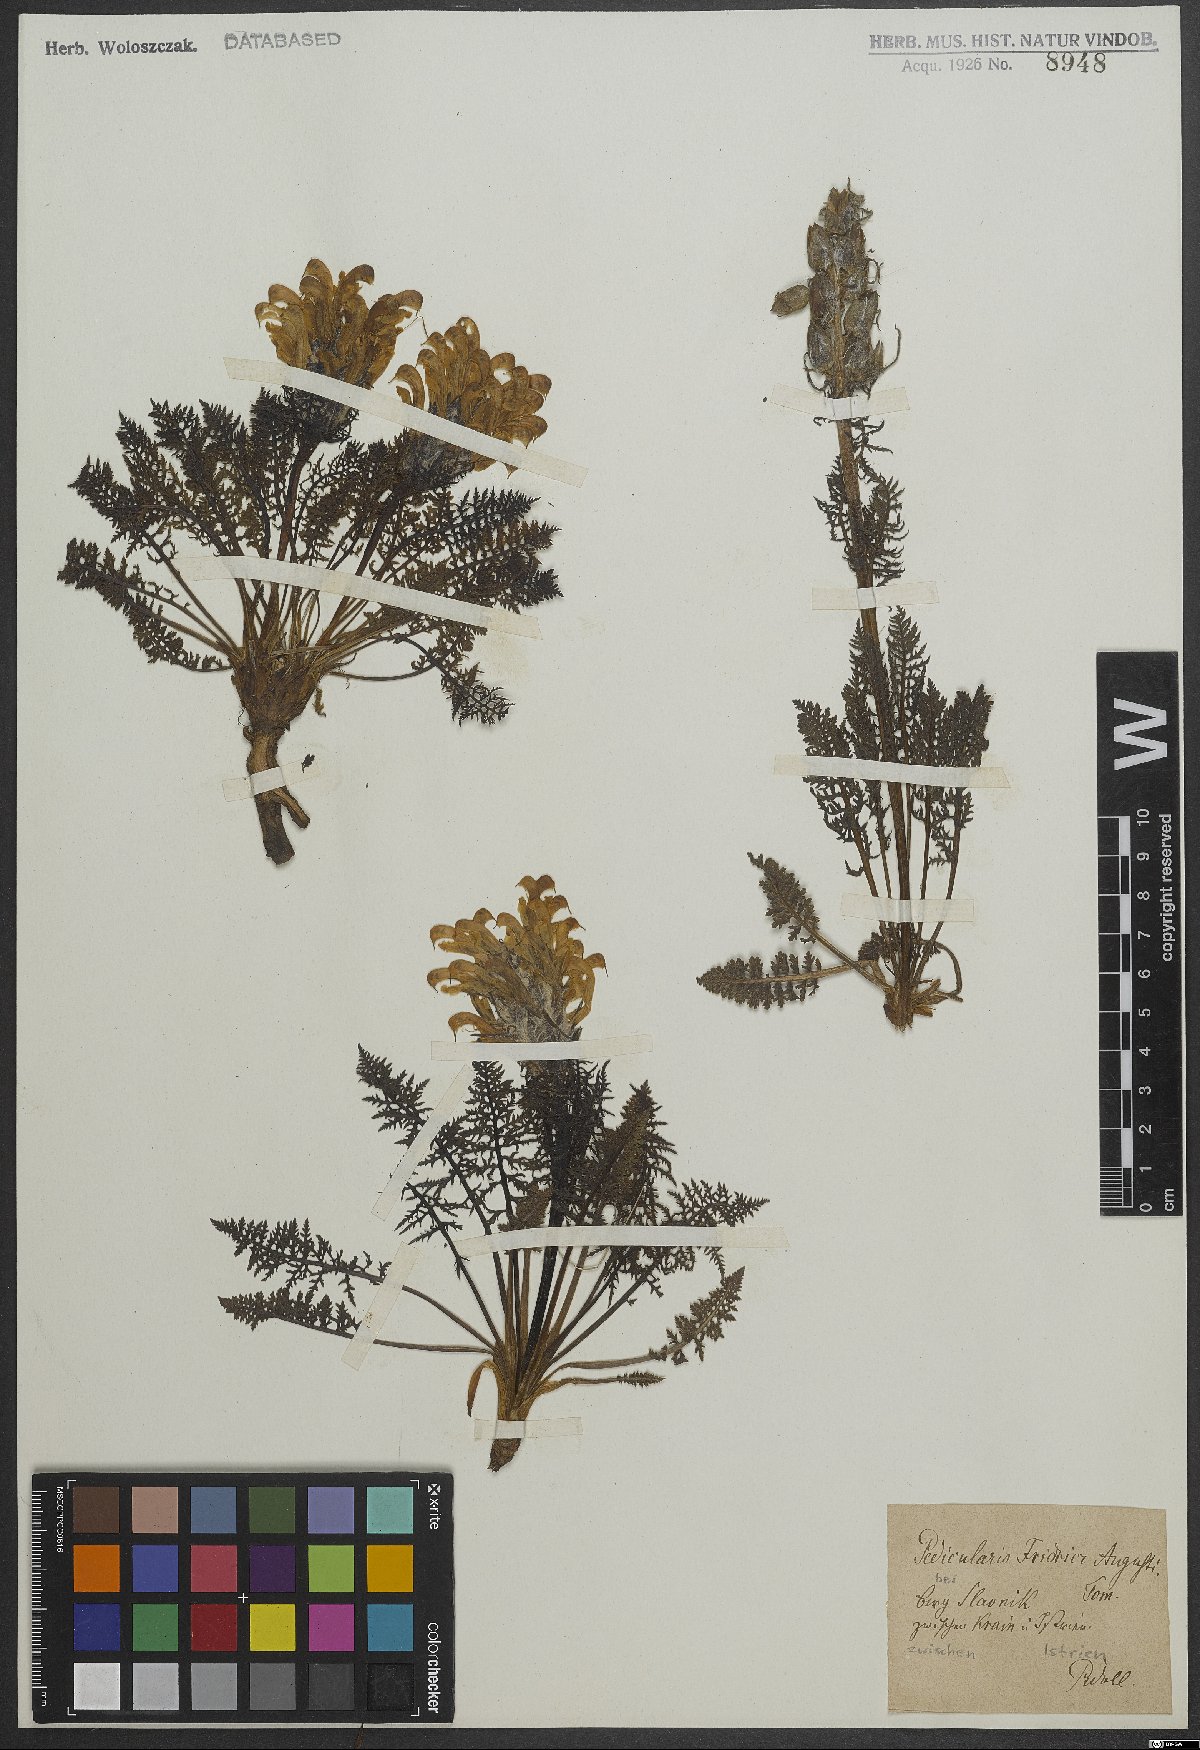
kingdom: Plantae
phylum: Tracheophyta
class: Magnoliopsida
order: Lamiales
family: Orobanchaceae
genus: Pedicularis
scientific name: Pedicularis friderici-augusti
